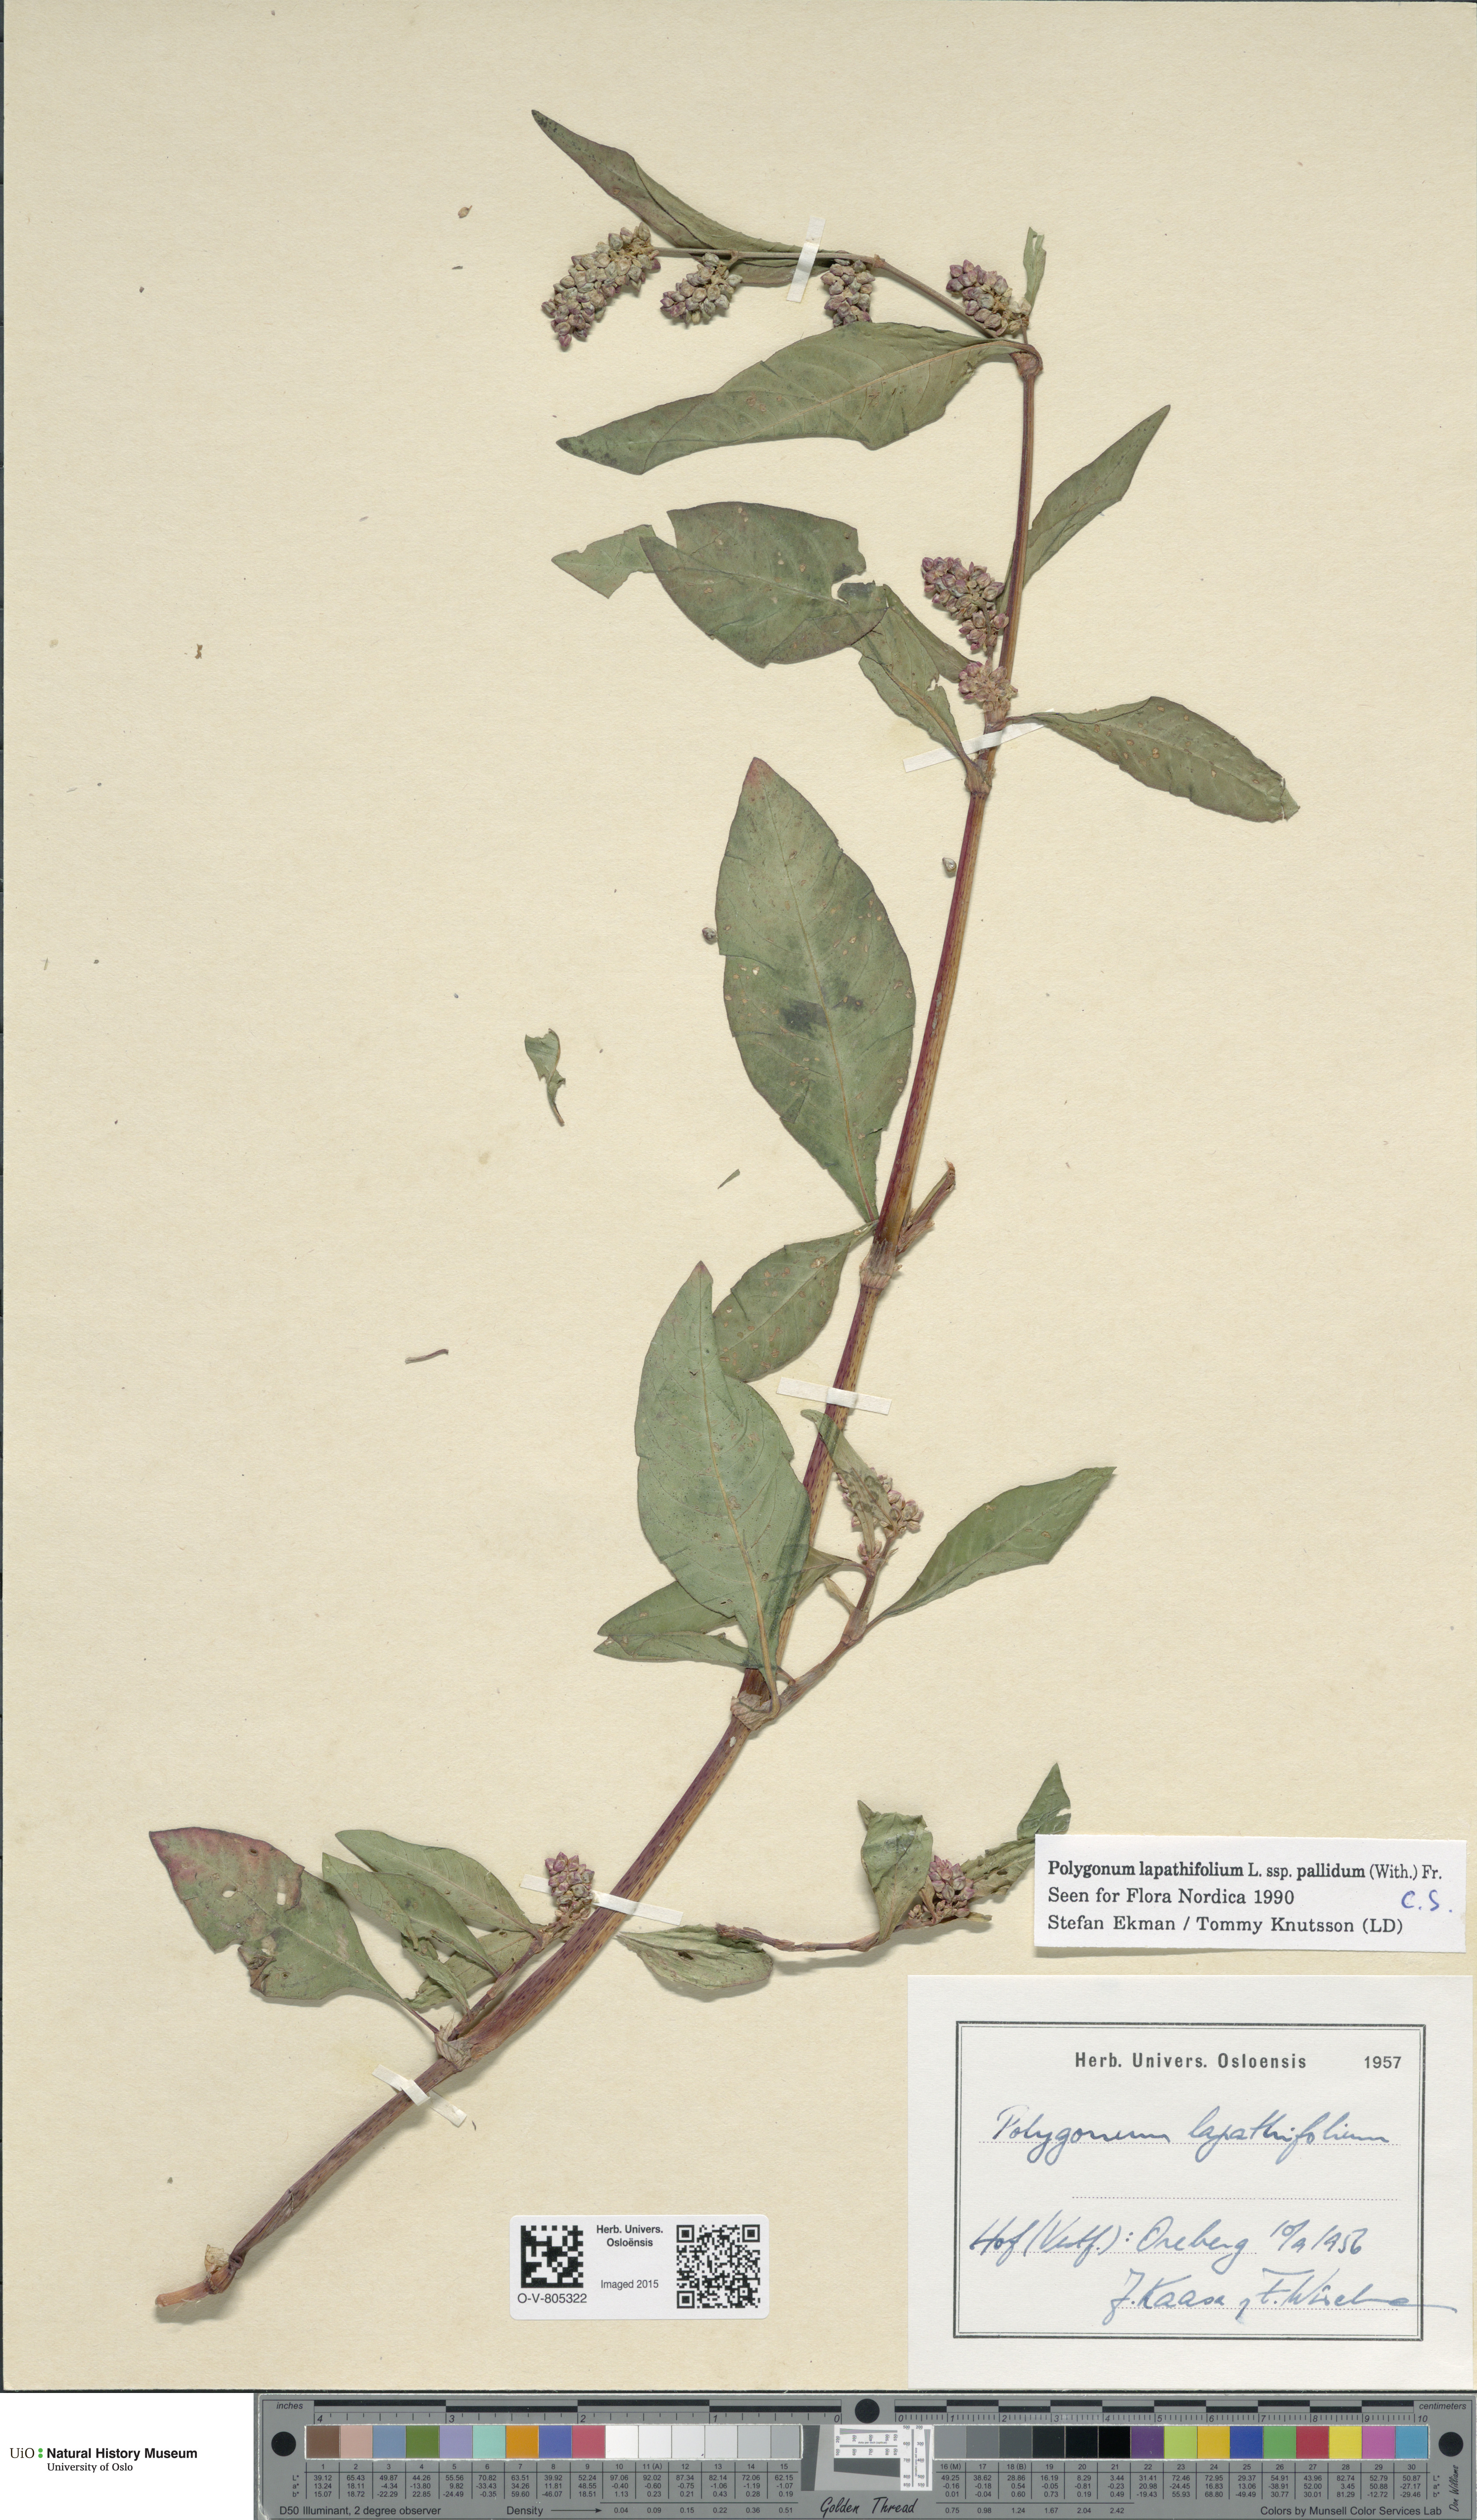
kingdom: Plantae
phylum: Tracheophyta
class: Magnoliopsida
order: Caryophyllales
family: Polygonaceae
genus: Persicaria
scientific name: Persicaria lapathifolia
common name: Curlytop knotweed
